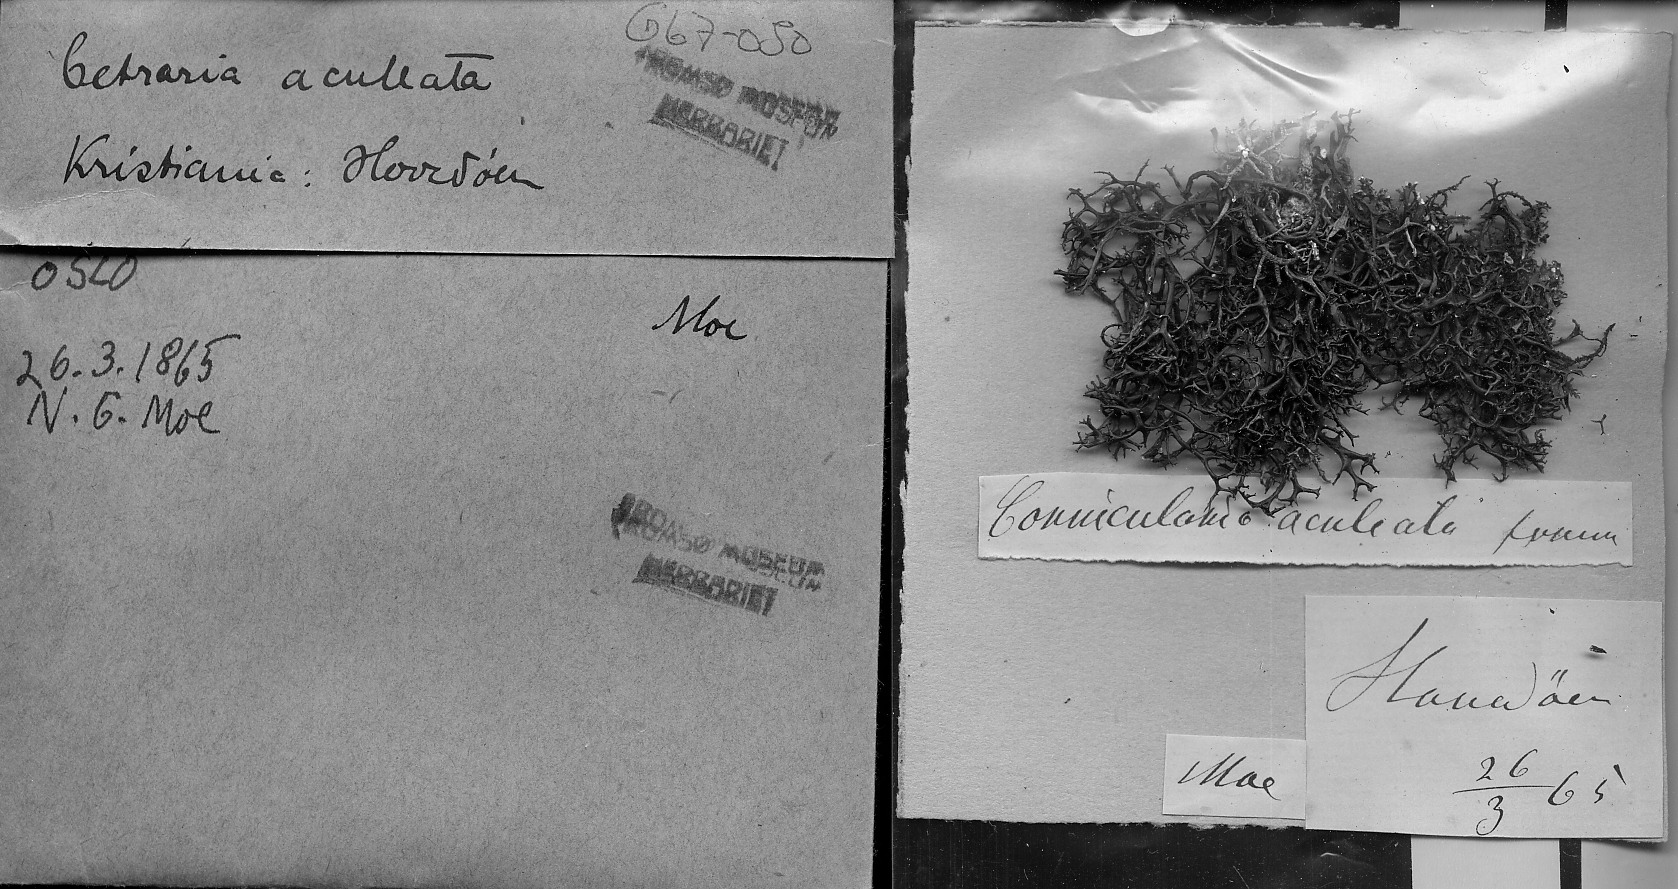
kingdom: Fungi
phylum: Ascomycota
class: Lecanoromycetes
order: Lecanorales
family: Parmeliaceae
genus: Cetraria
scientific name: Cetraria aculeata
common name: Spiny heath lichen
